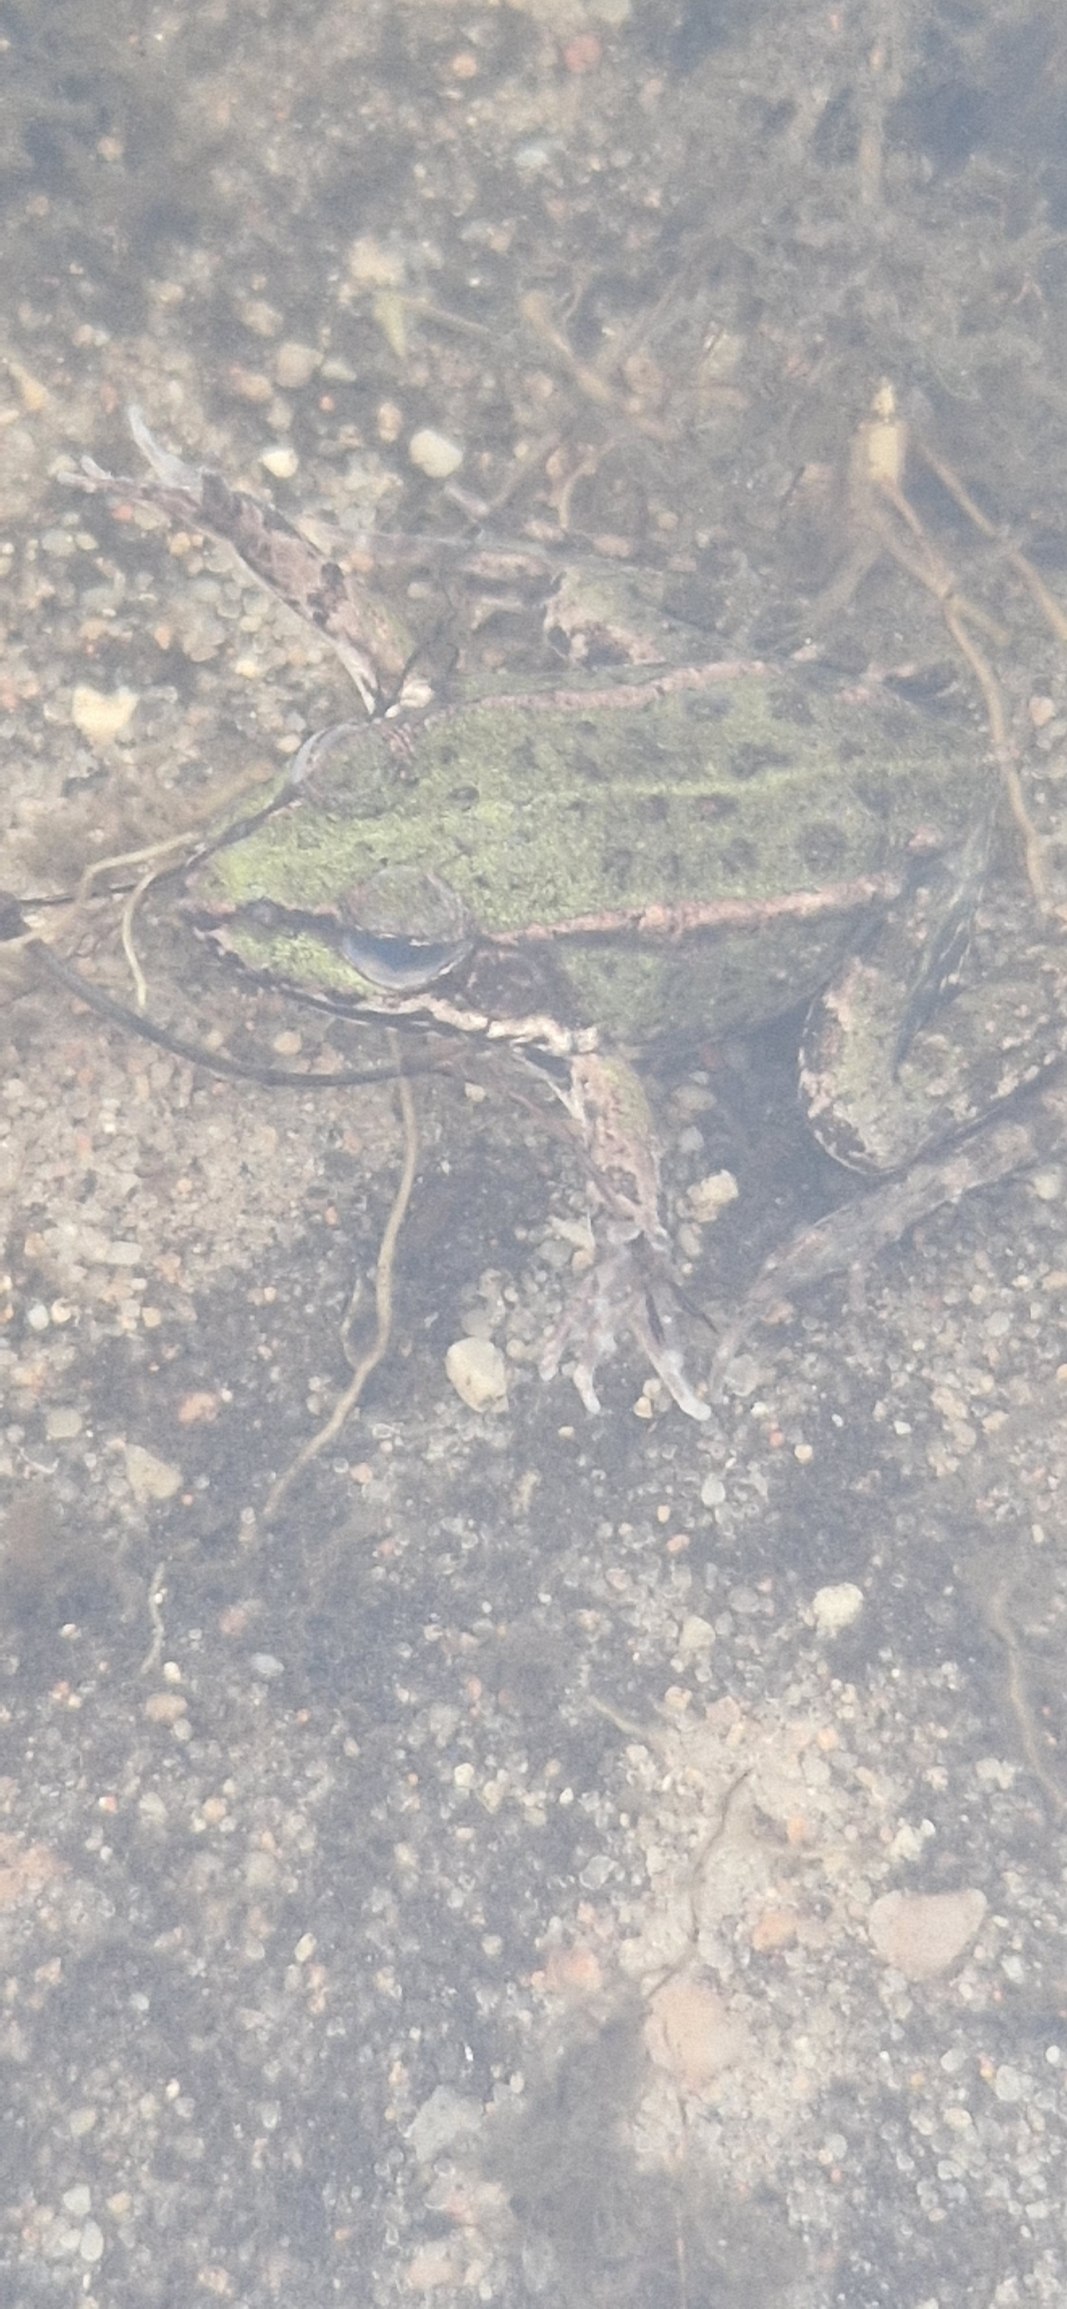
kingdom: Animalia
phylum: Chordata
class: Amphibia
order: Anura
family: Ranidae
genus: Pelophylax
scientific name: Pelophylax lessonae
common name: Grøn frø
